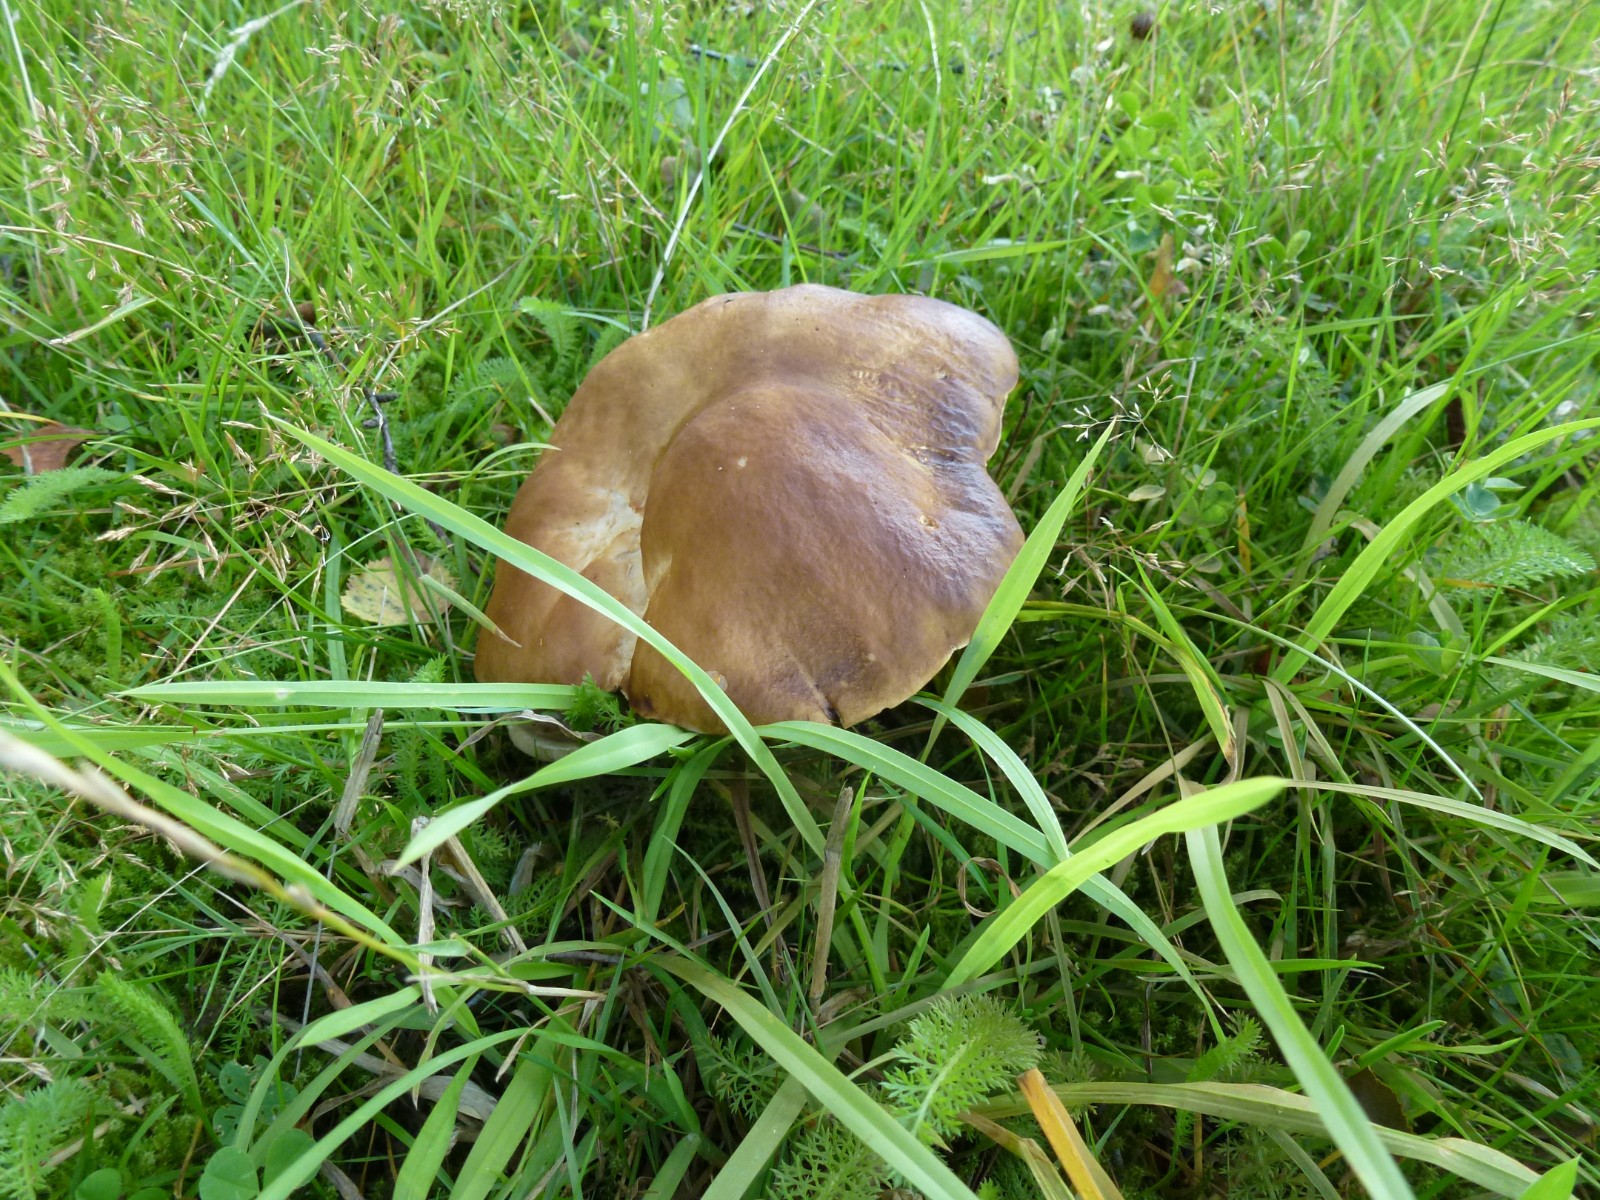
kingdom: Fungi
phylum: Basidiomycota
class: Agaricomycetes
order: Boletales
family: Boletaceae
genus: Boletus
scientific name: Boletus edulis
